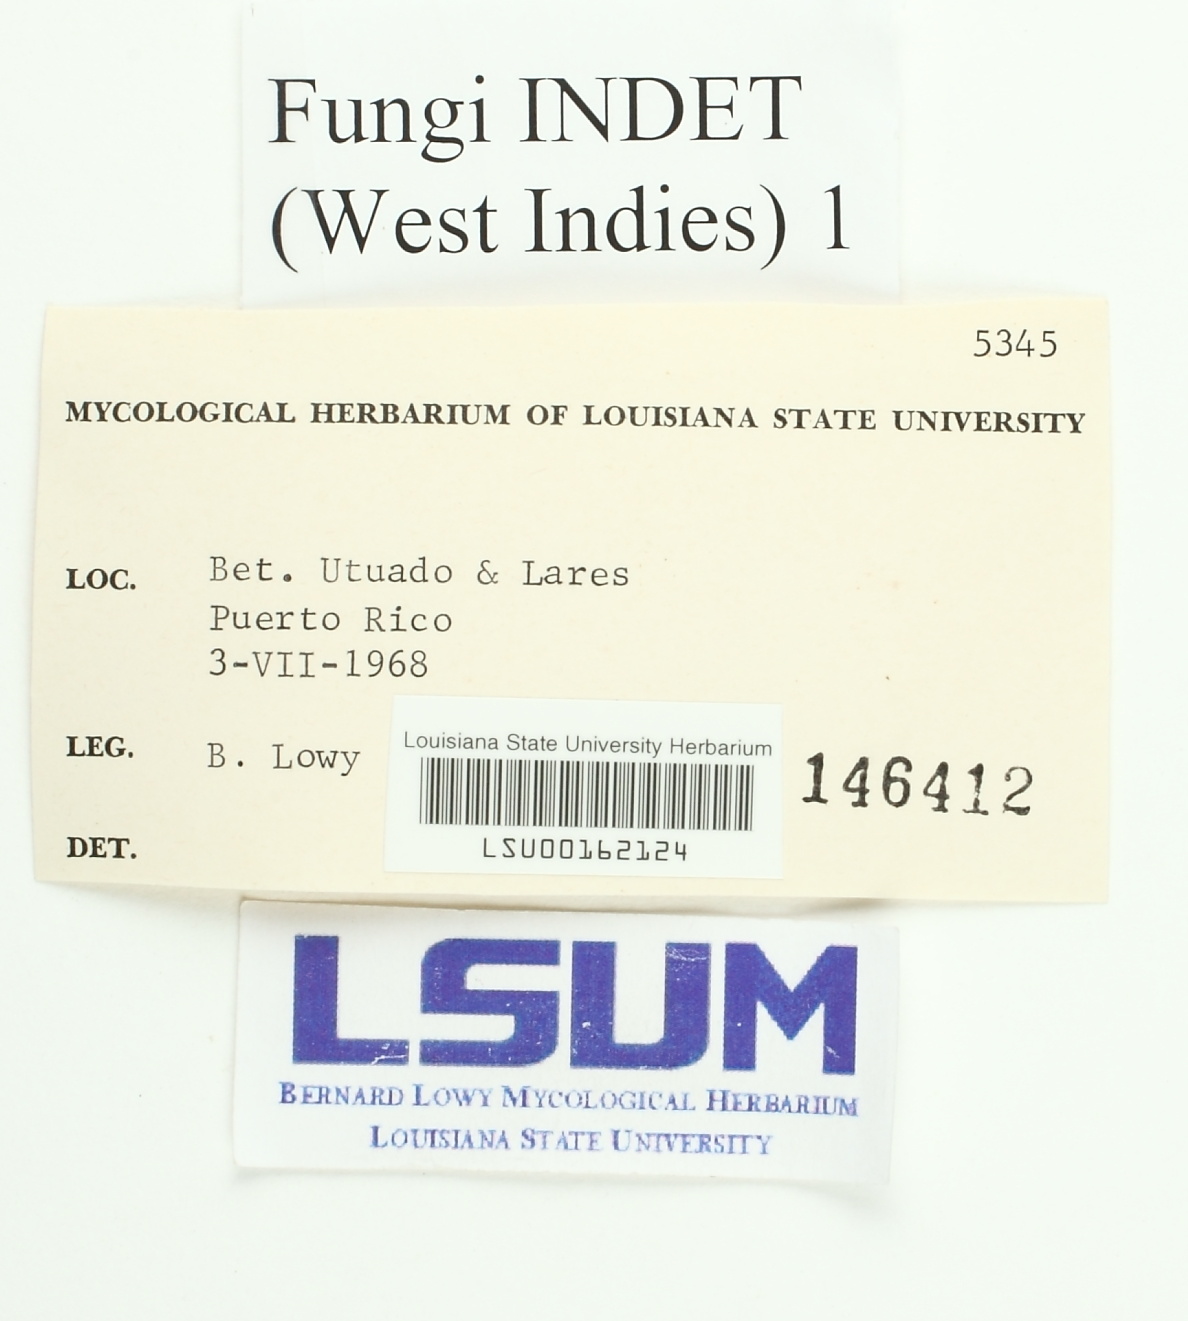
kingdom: Fungi
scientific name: Fungi
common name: Fungi
